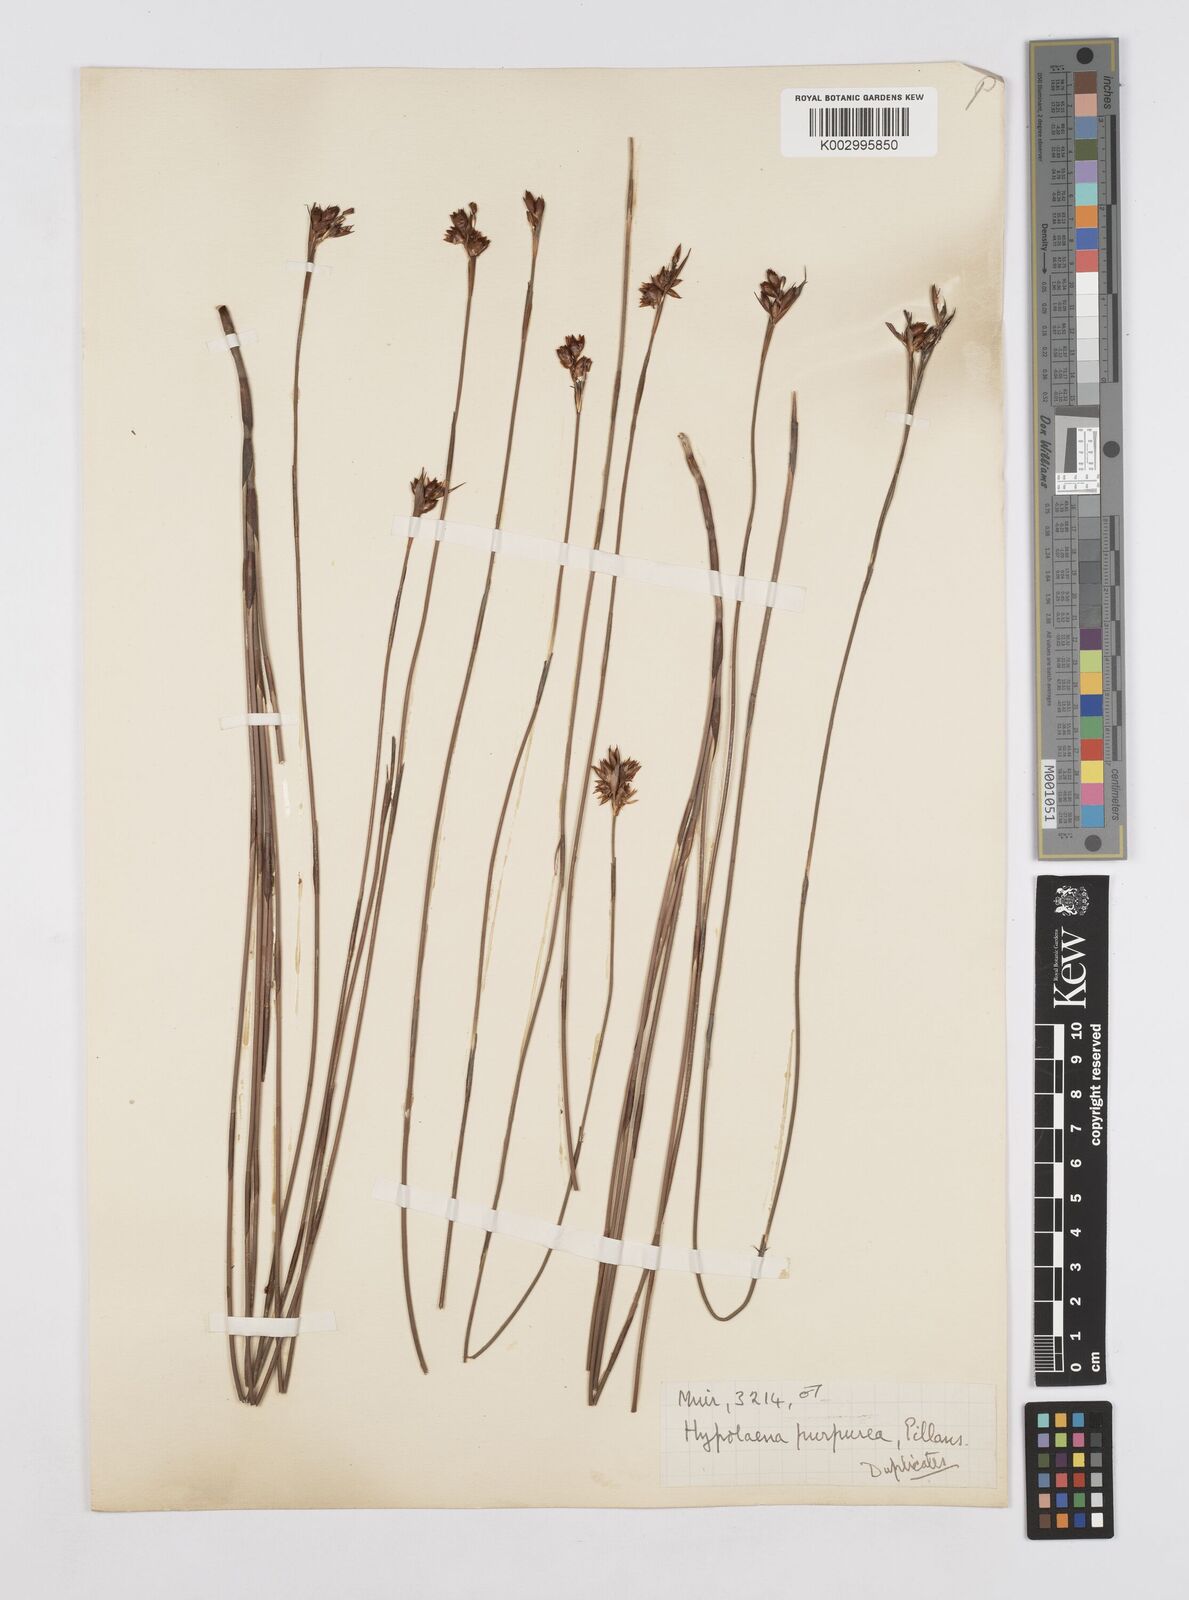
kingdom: Plantae
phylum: Tracheophyta
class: Liliopsida
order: Poales
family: Restionaceae
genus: Mastersiella
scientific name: Mastersiella purpurea
